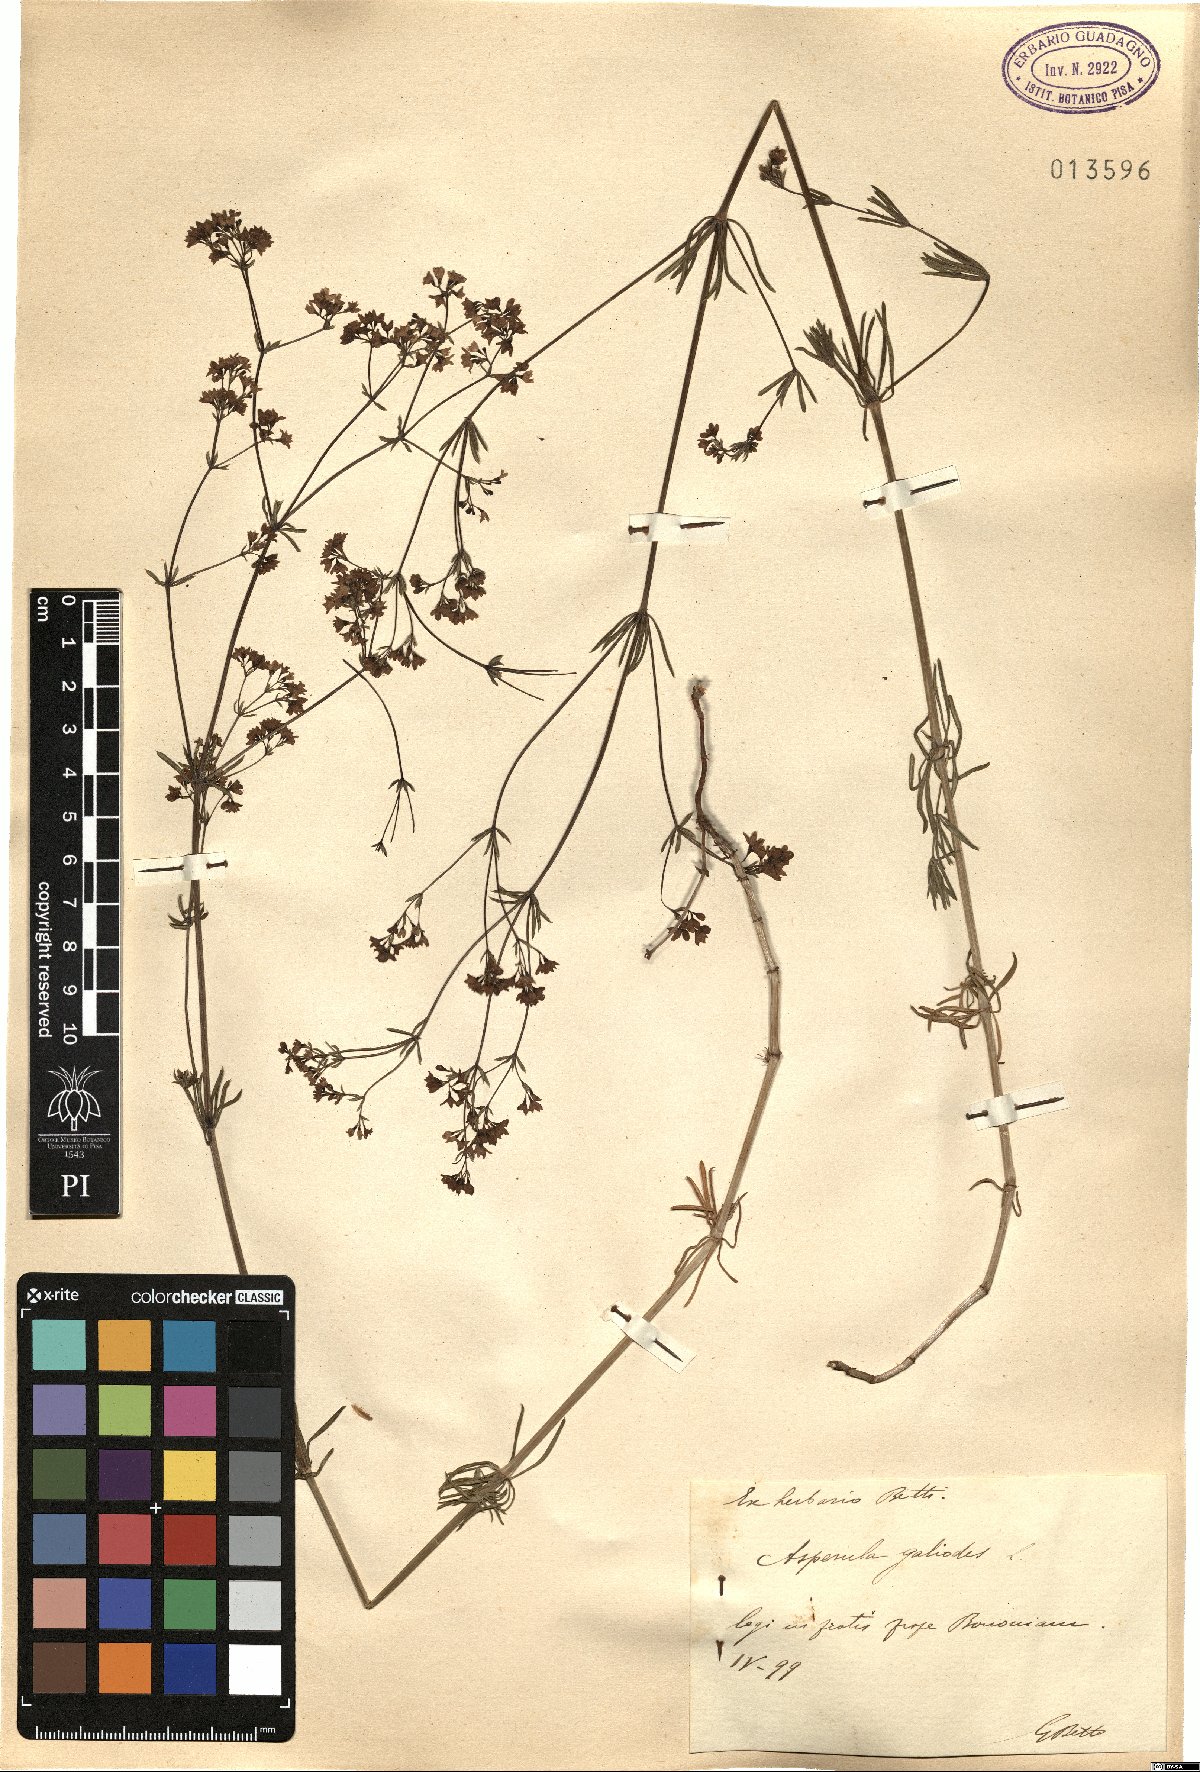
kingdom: Plantae
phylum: Tracheophyta
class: Magnoliopsida
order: Gentianales
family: Rubiaceae
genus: Asperula
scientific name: Asperula galioides
